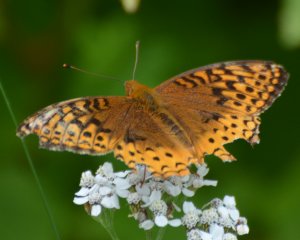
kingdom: Animalia
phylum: Arthropoda
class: Insecta
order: Lepidoptera
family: Nymphalidae
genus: Speyeria
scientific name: Speyeria cybele
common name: Great Spangled Fritillary
